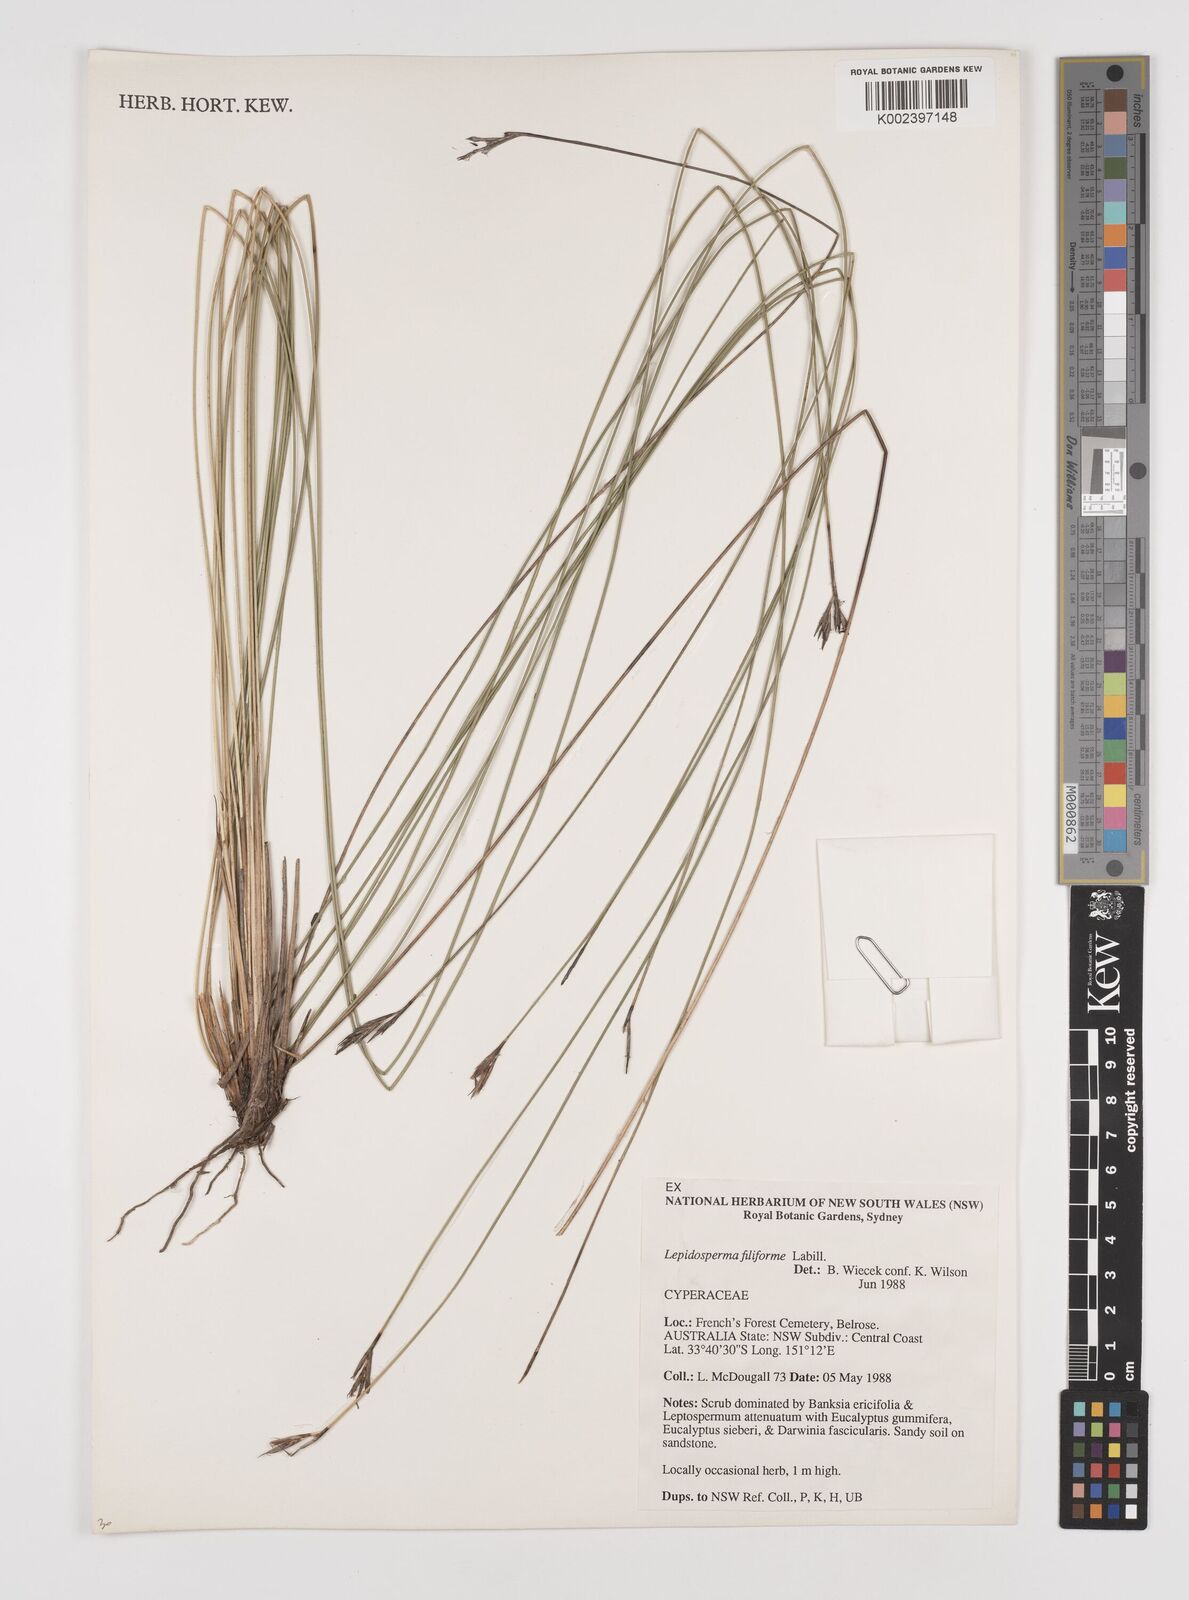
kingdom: Plantae
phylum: Tracheophyta
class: Liliopsida
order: Poales
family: Cyperaceae
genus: Lepidosperma
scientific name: Lepidosperma filiforme
